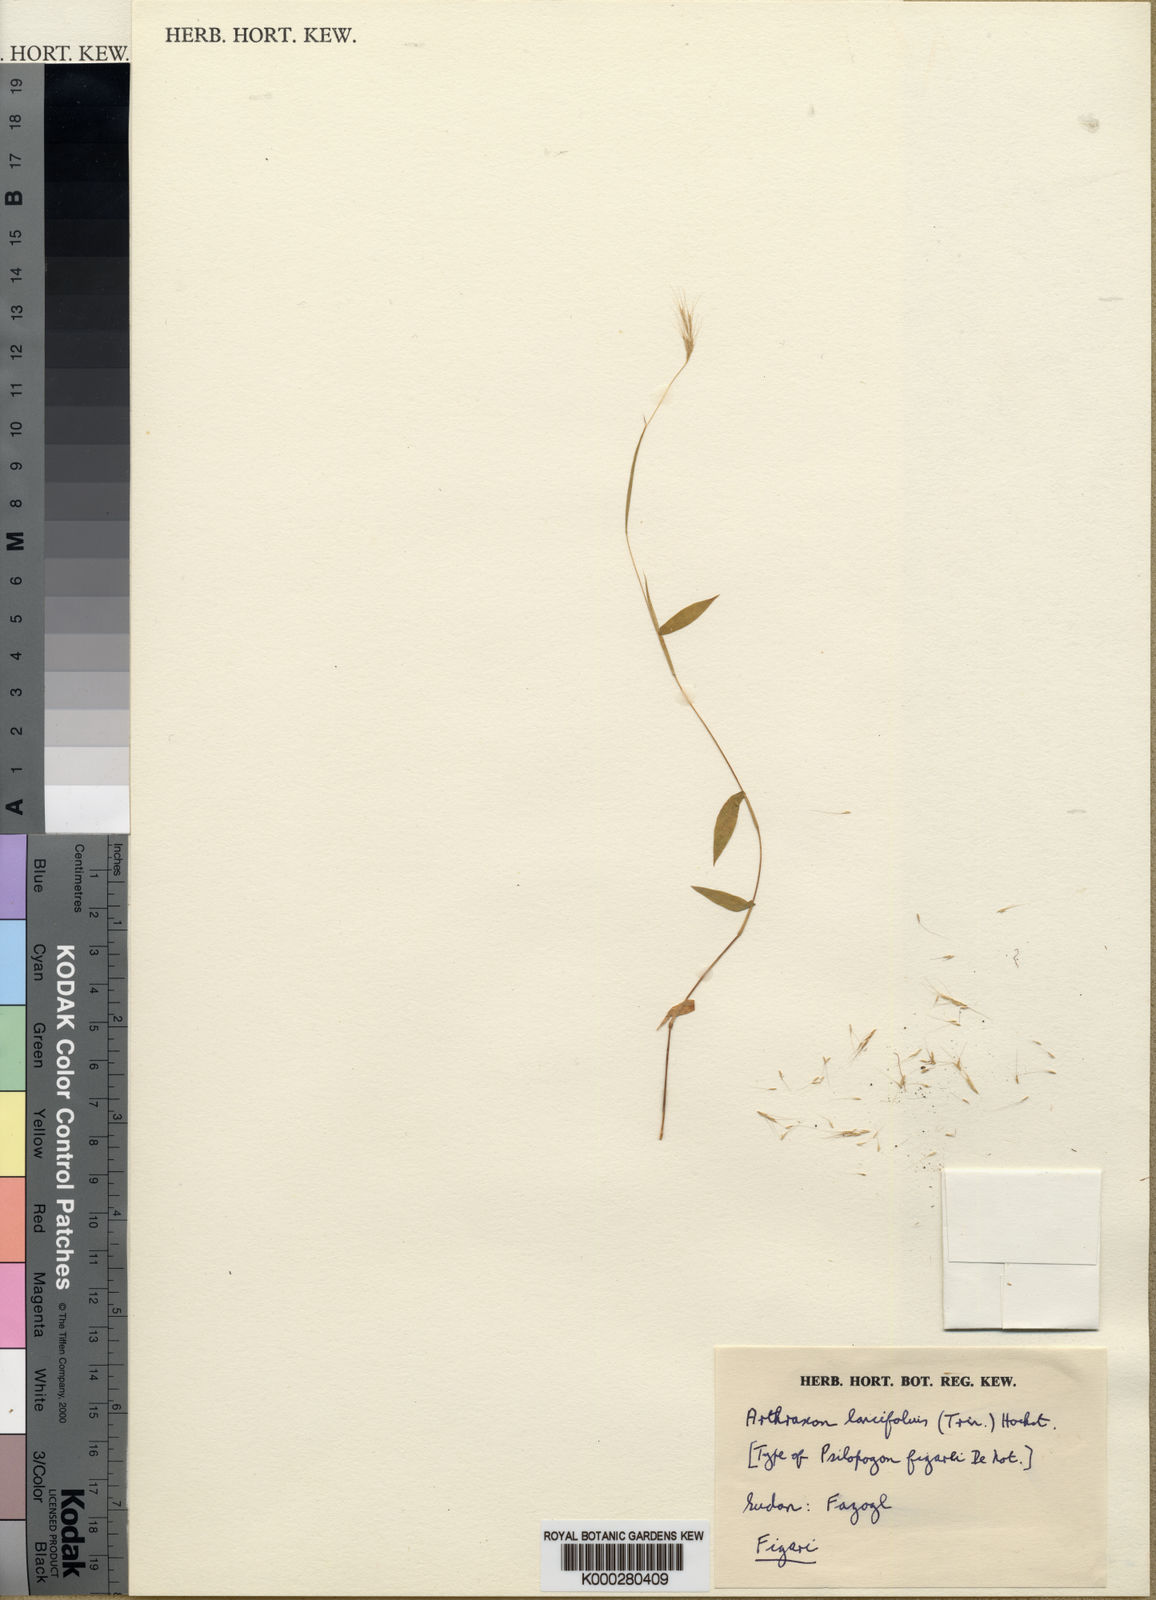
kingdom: Plantae
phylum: Tracheophyta
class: Liliopsida
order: Poales
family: Poaceae
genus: Arthraxon
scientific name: Arthraxon lancifolius
